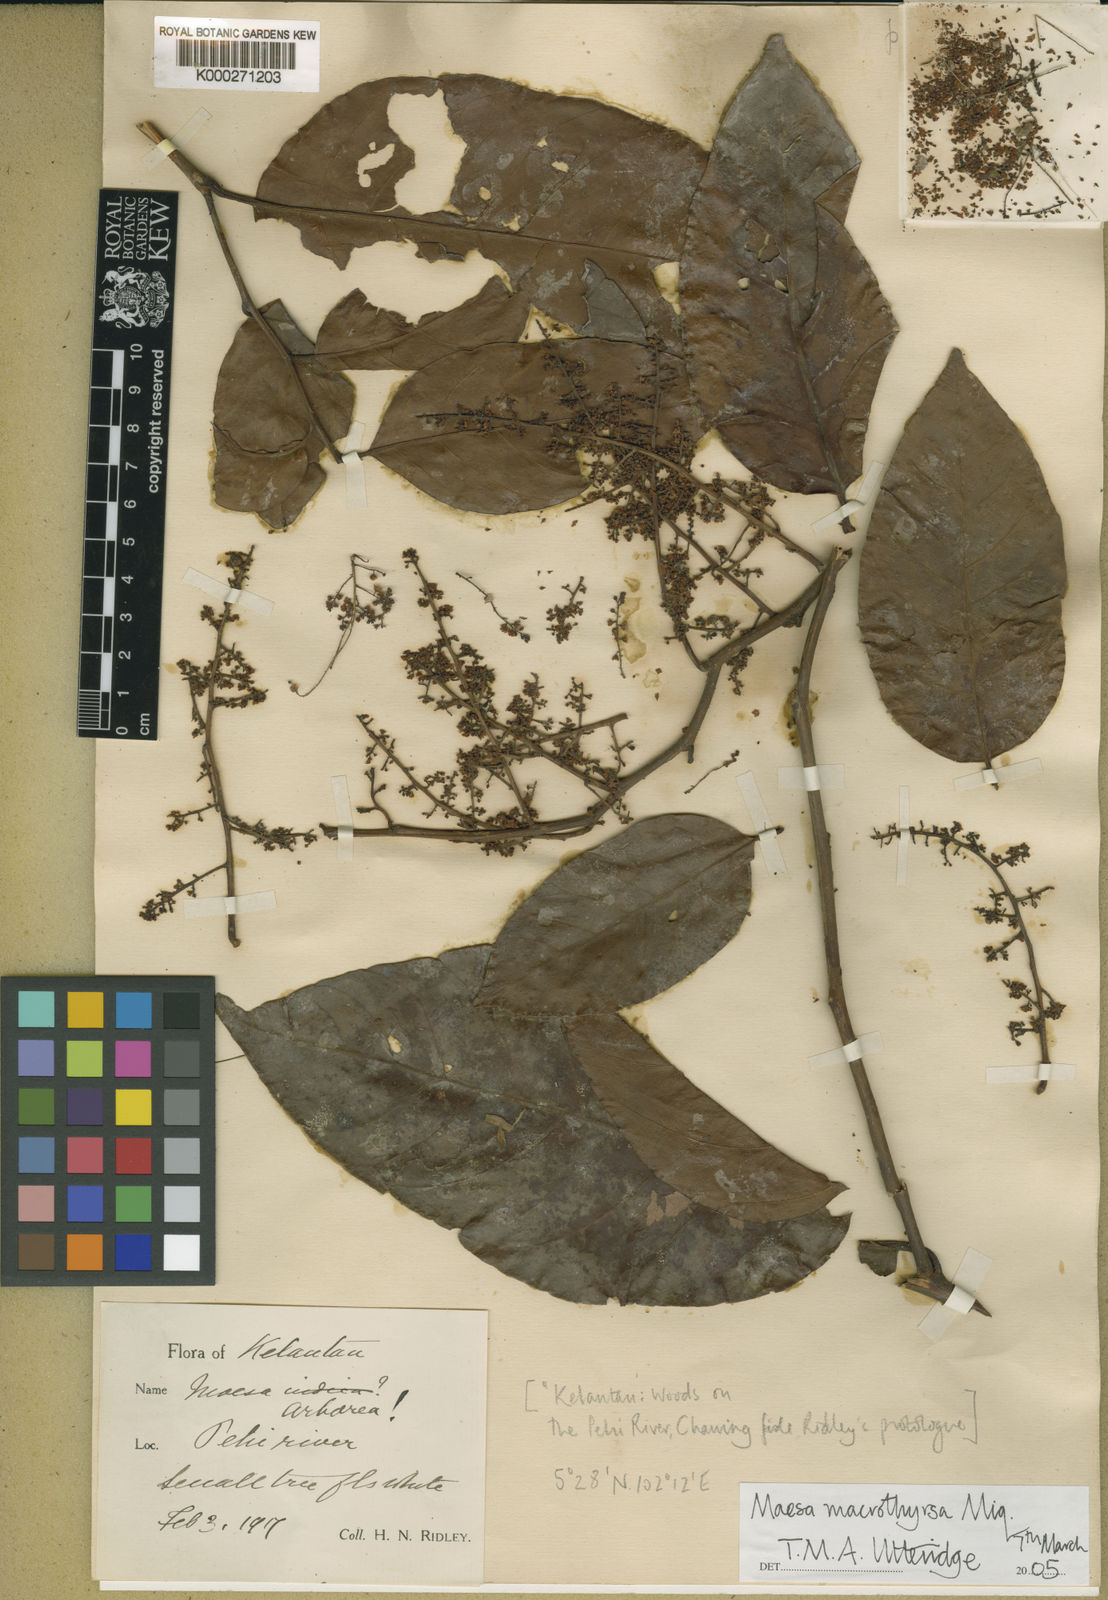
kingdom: Plantae
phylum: Tracheophyta
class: Magnoliopsida
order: Ericales
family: Primulaceae
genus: Maesa
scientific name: Maesa macrothyrsa
